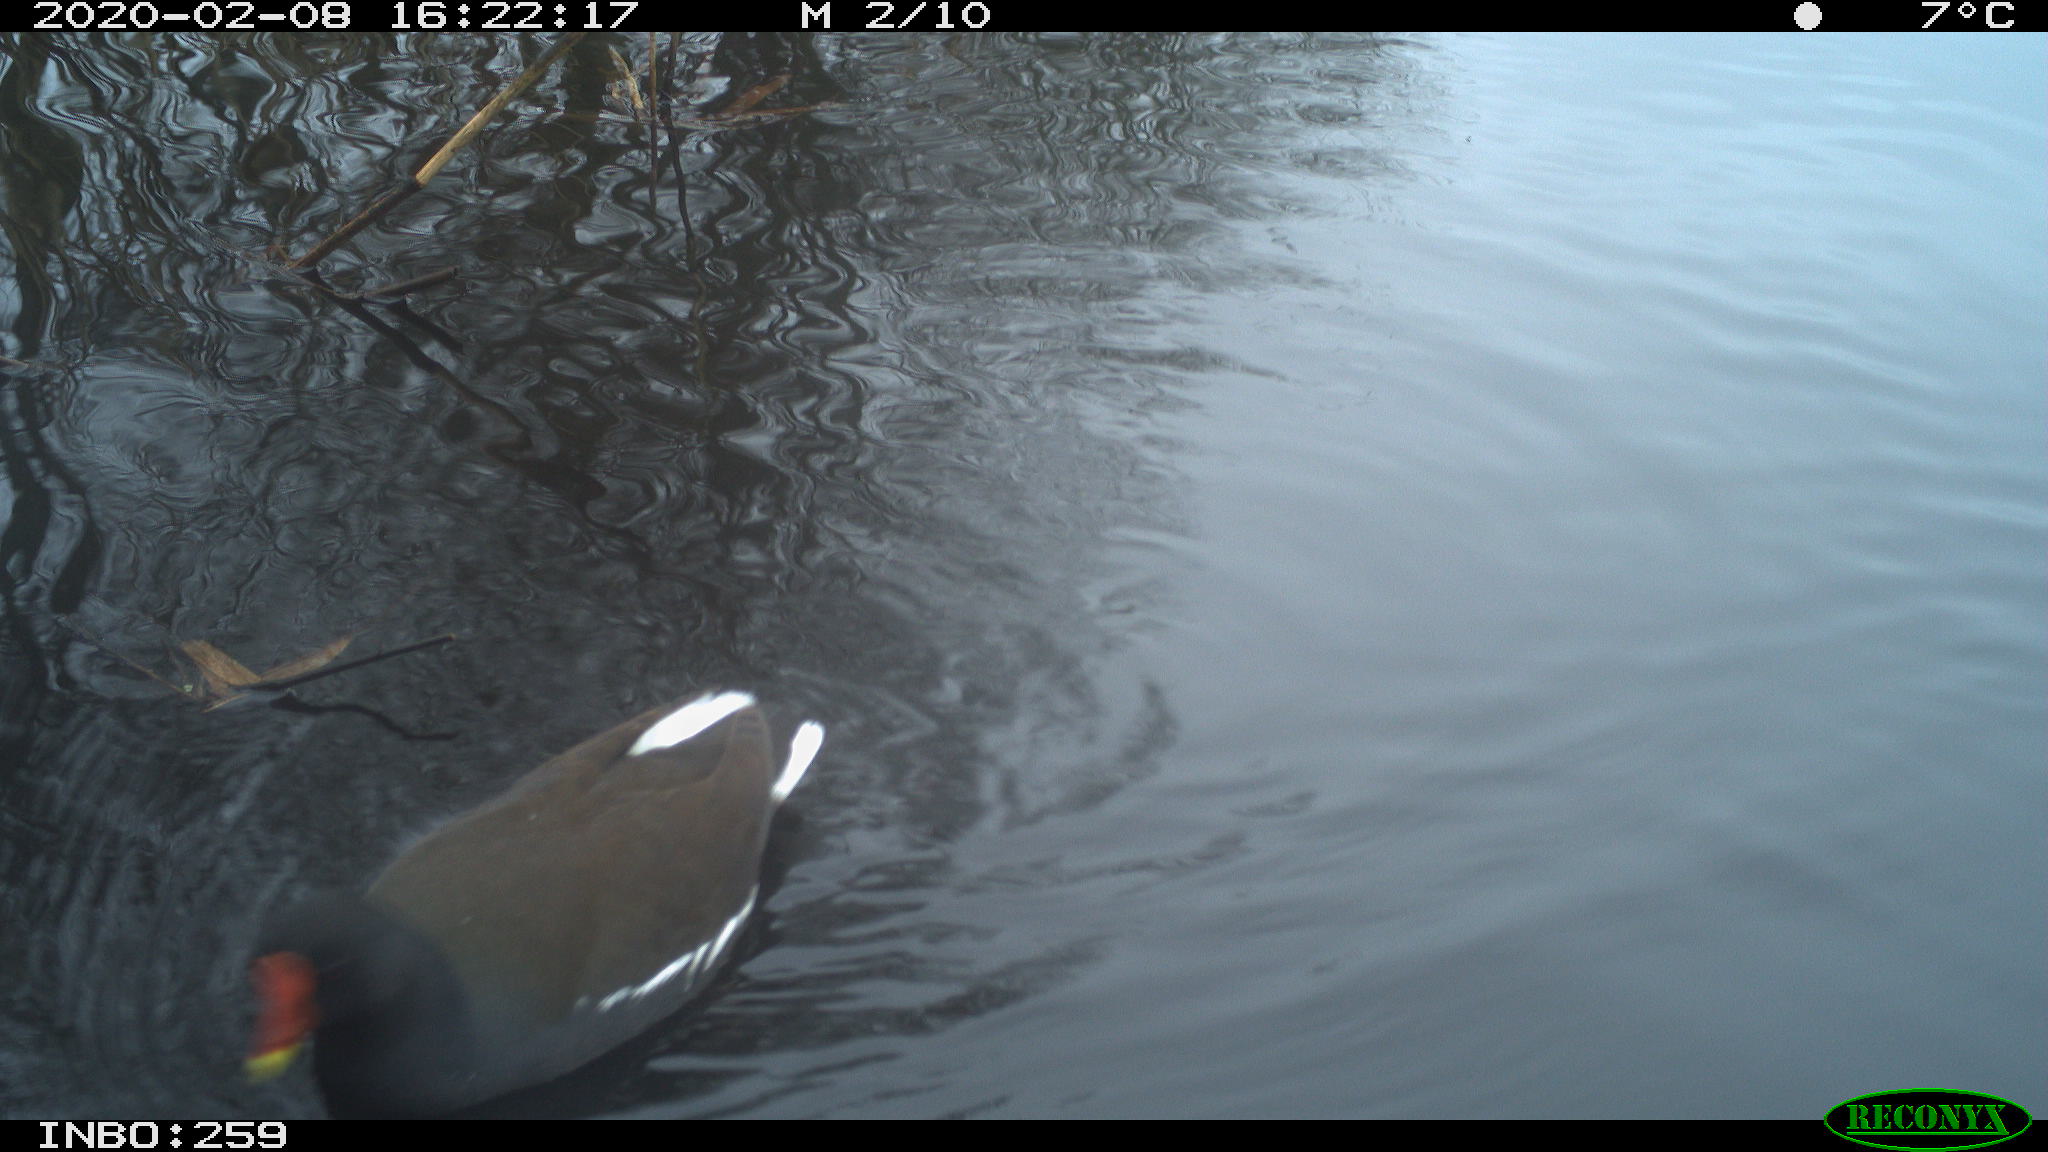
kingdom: Animalia
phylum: Chordata
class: Aves
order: Gruiformes
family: Rallidae
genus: Gallinula
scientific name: Gallinula chloropus
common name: Common moorhen
